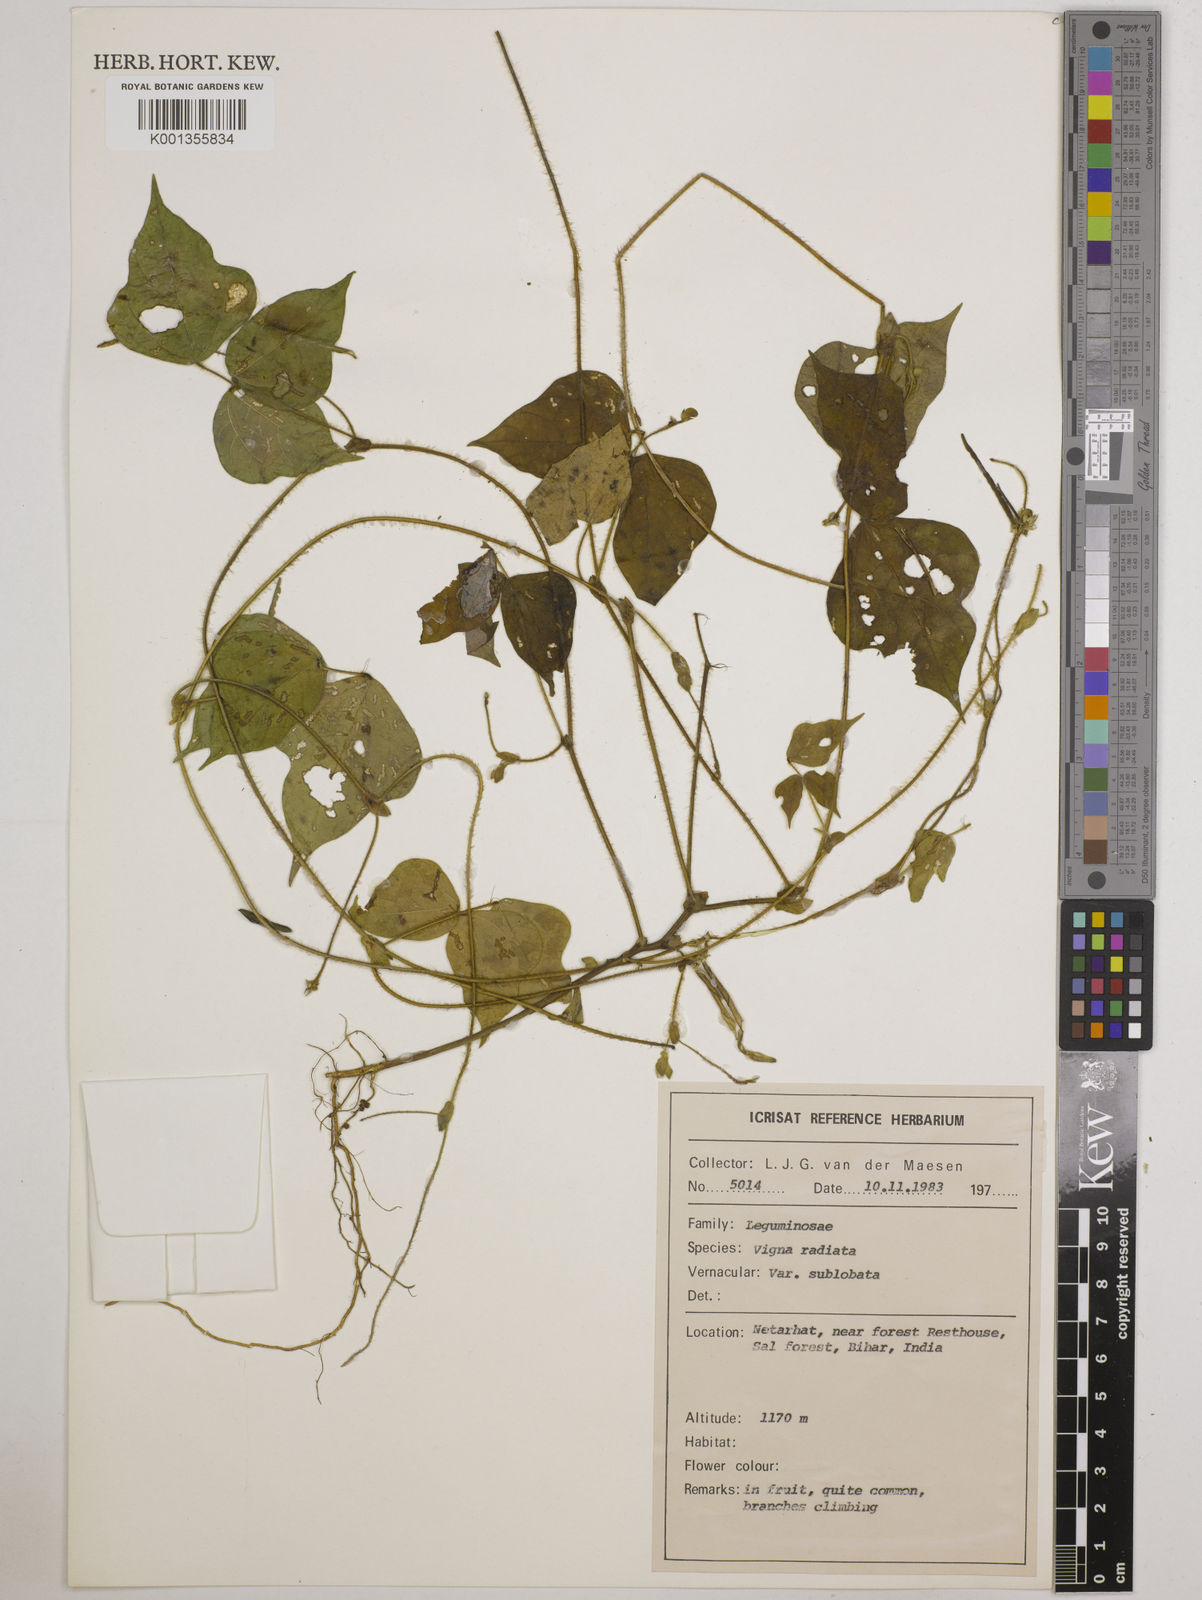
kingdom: Plantae
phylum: Tracheophyta
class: Magnoliopsida
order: Fabales
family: Fabaceae
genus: Vigna
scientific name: Vigna radiata
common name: Mung-bean
